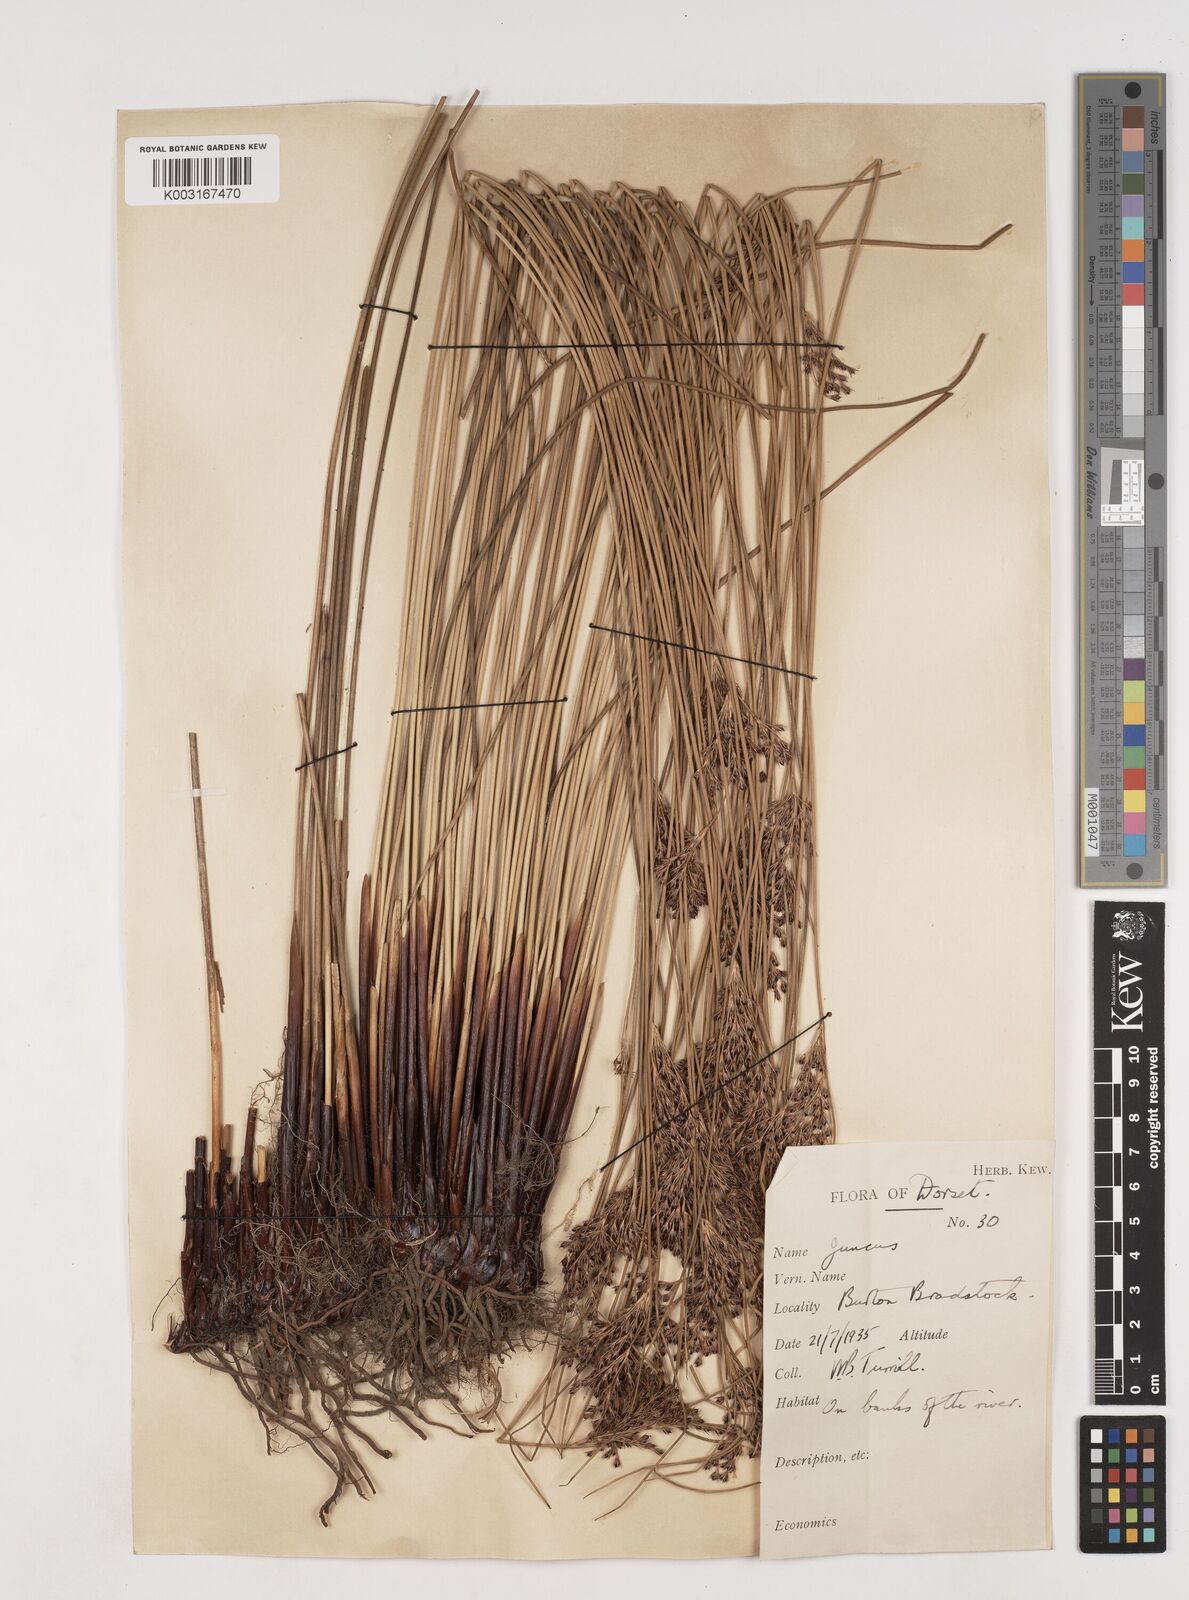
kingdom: Plantae
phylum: Tracheophyta
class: Liliopsida
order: Poales
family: Juncaceae
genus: Juncus
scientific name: Juncus inflexus
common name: Hard rush
